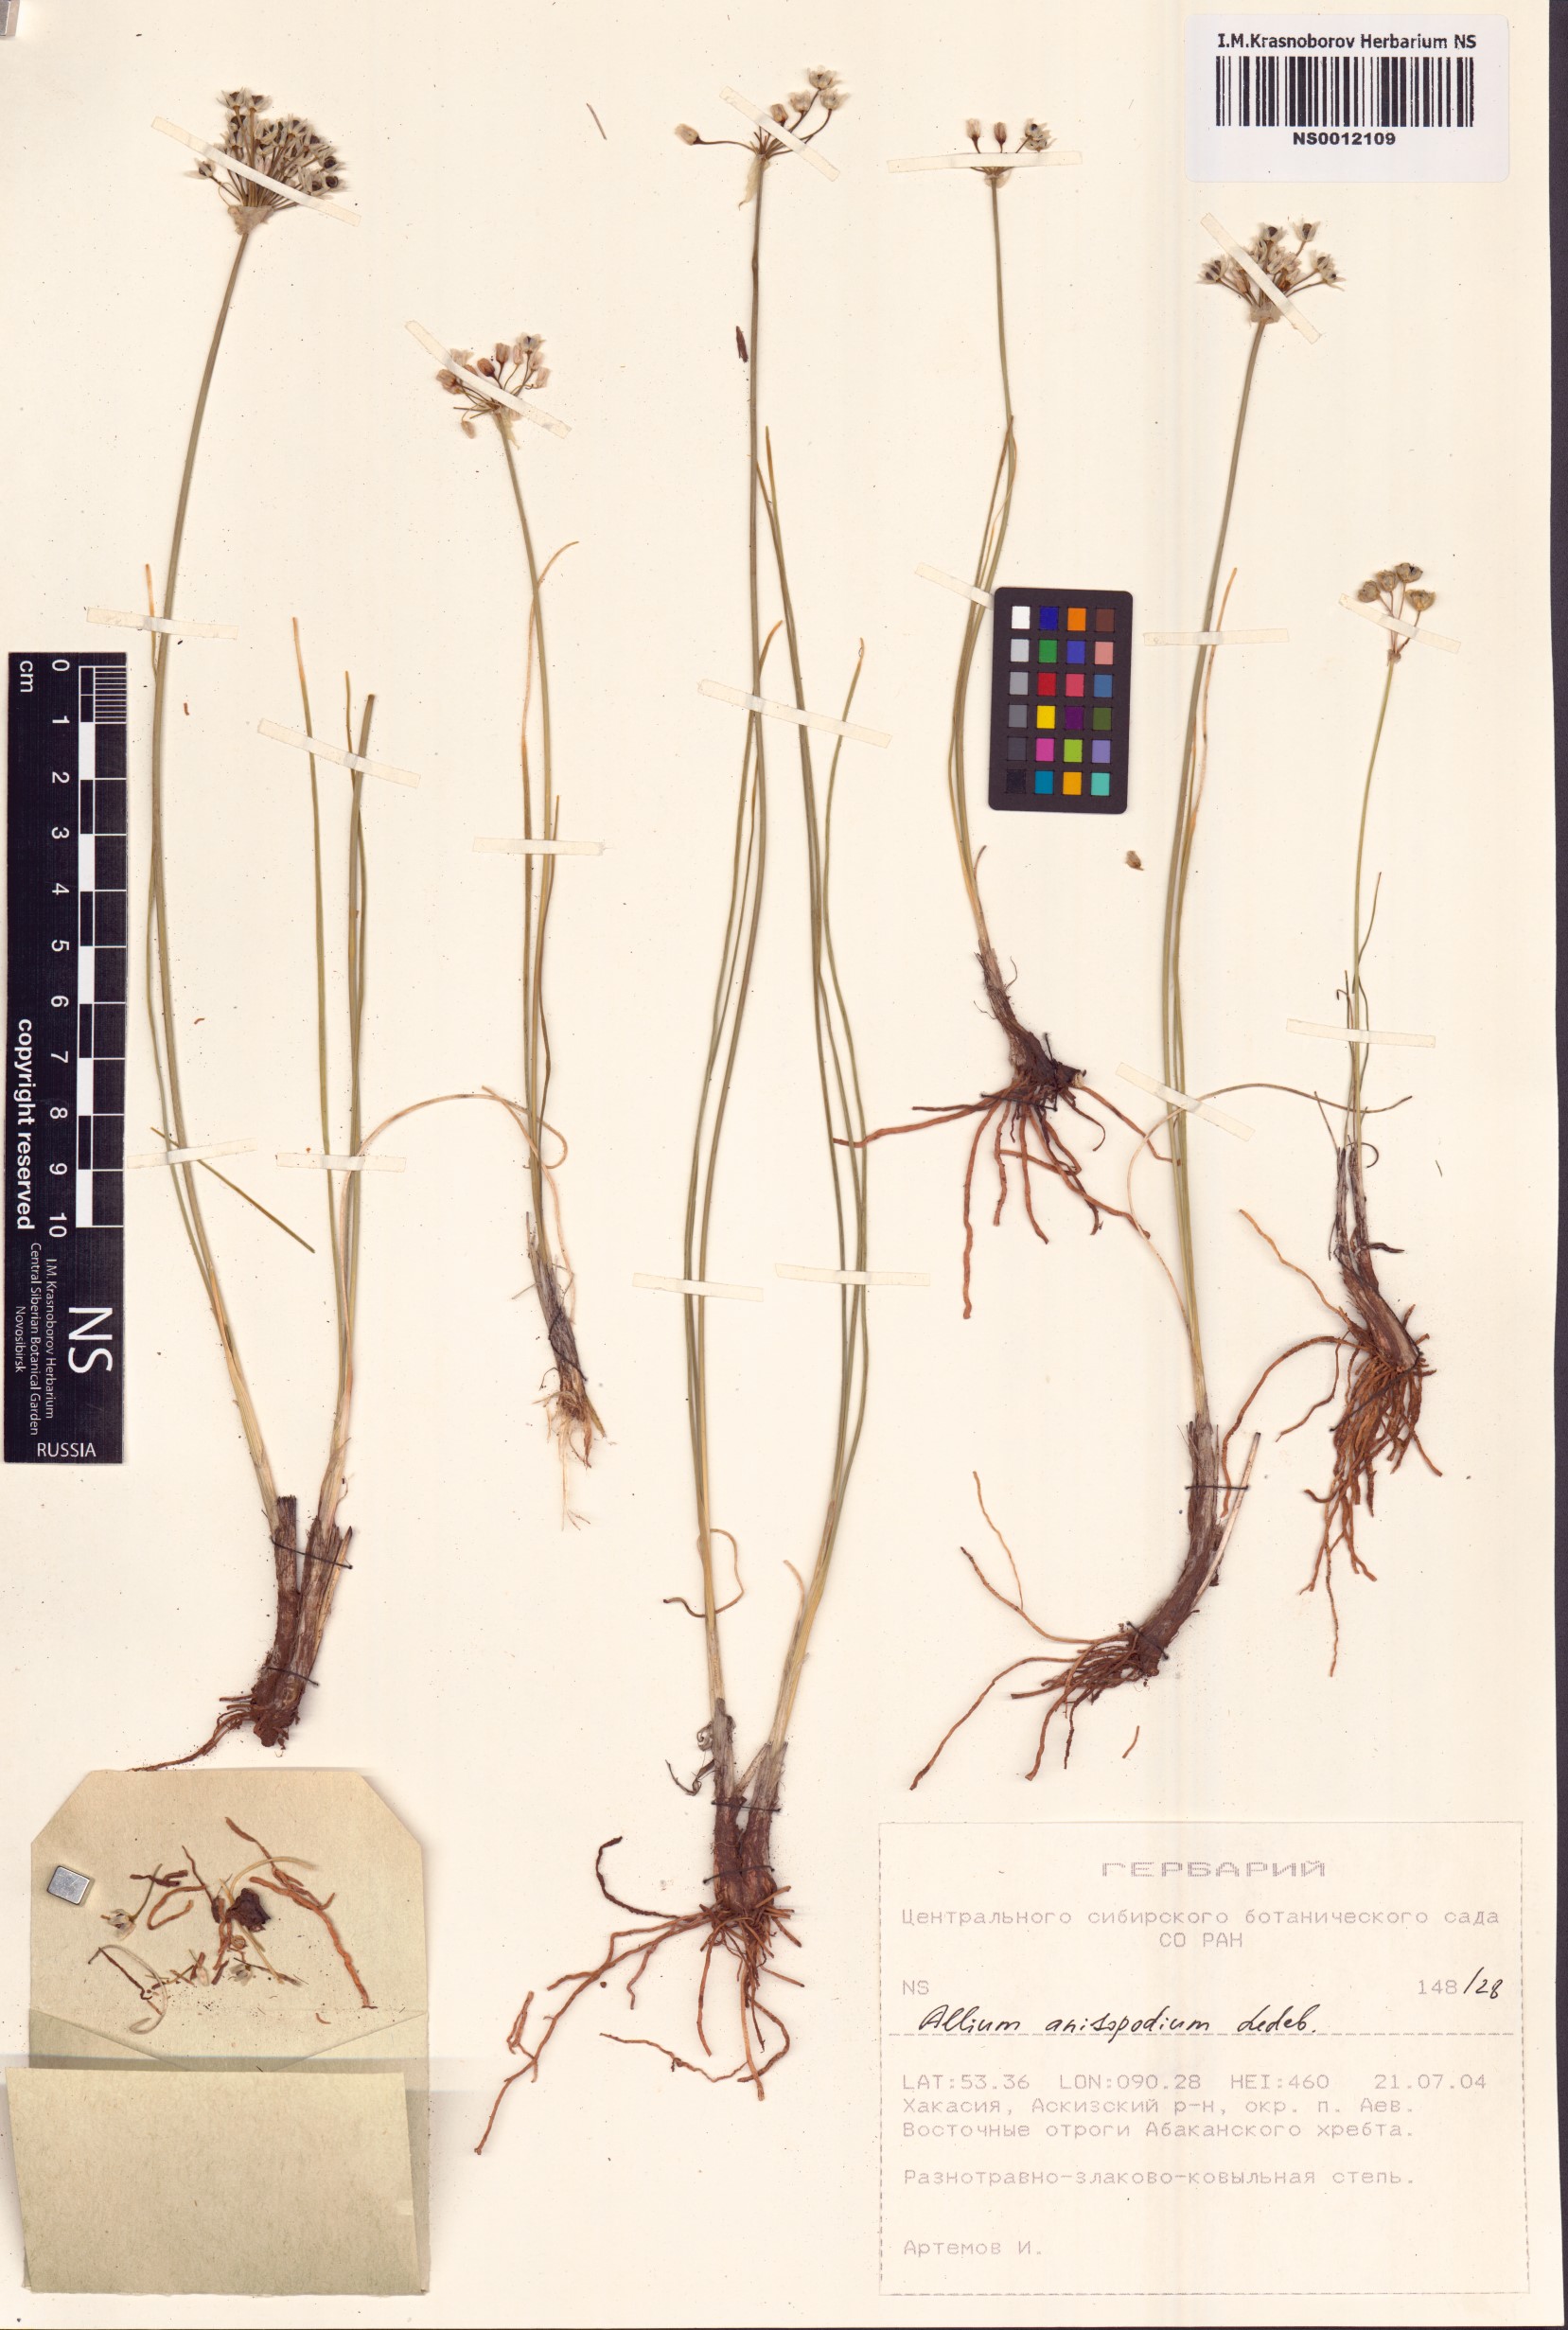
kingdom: Plantae
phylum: Tracheophyta
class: Liliopsida
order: Asparagales
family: Amaryllidaceae
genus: Allium
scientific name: Allium anisopodium
